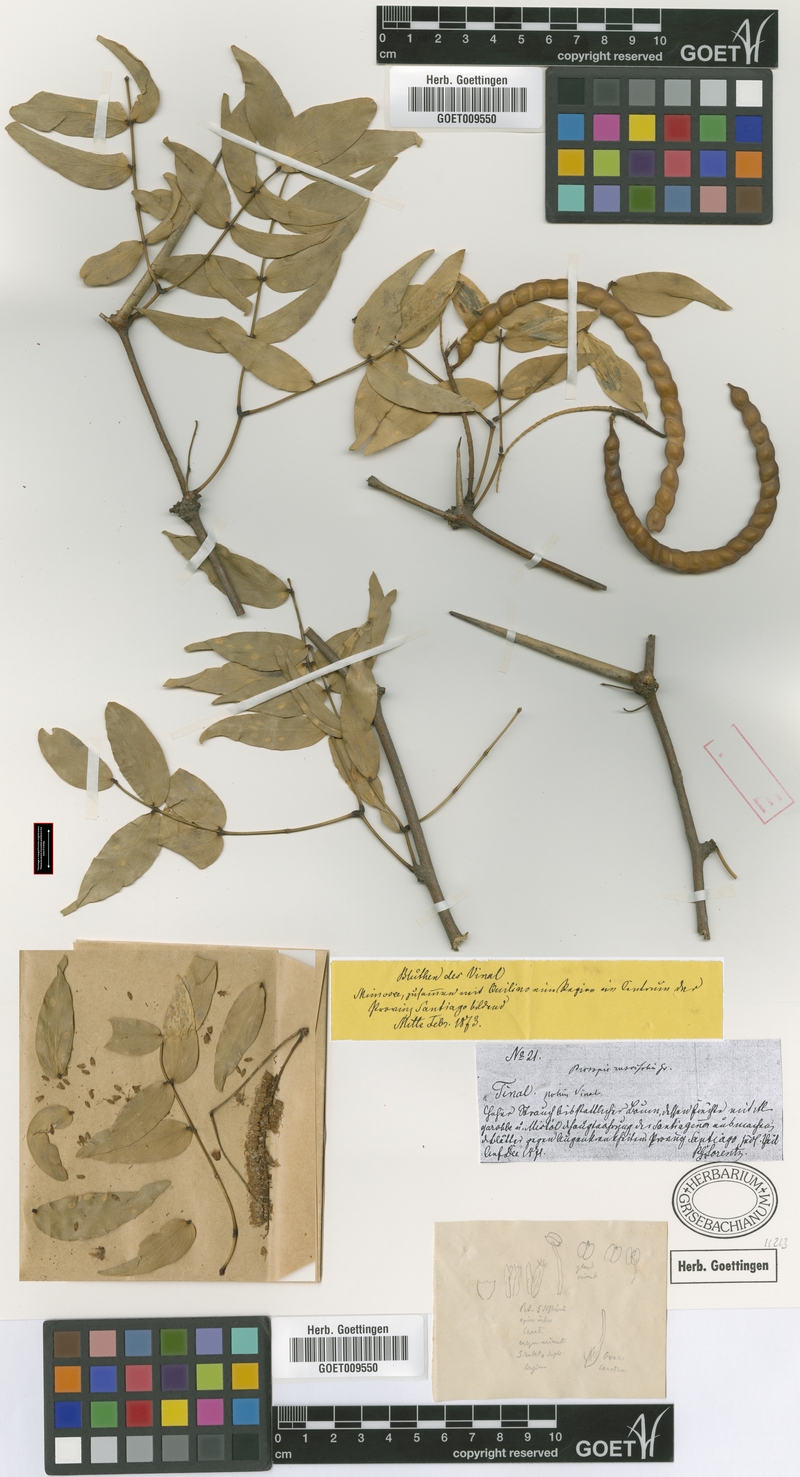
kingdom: Plantae
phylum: Tracheophyta
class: Magnoliopsida
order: Fabales
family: Fabaceae
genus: Prosopis
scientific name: Prosopis ruscifolia
